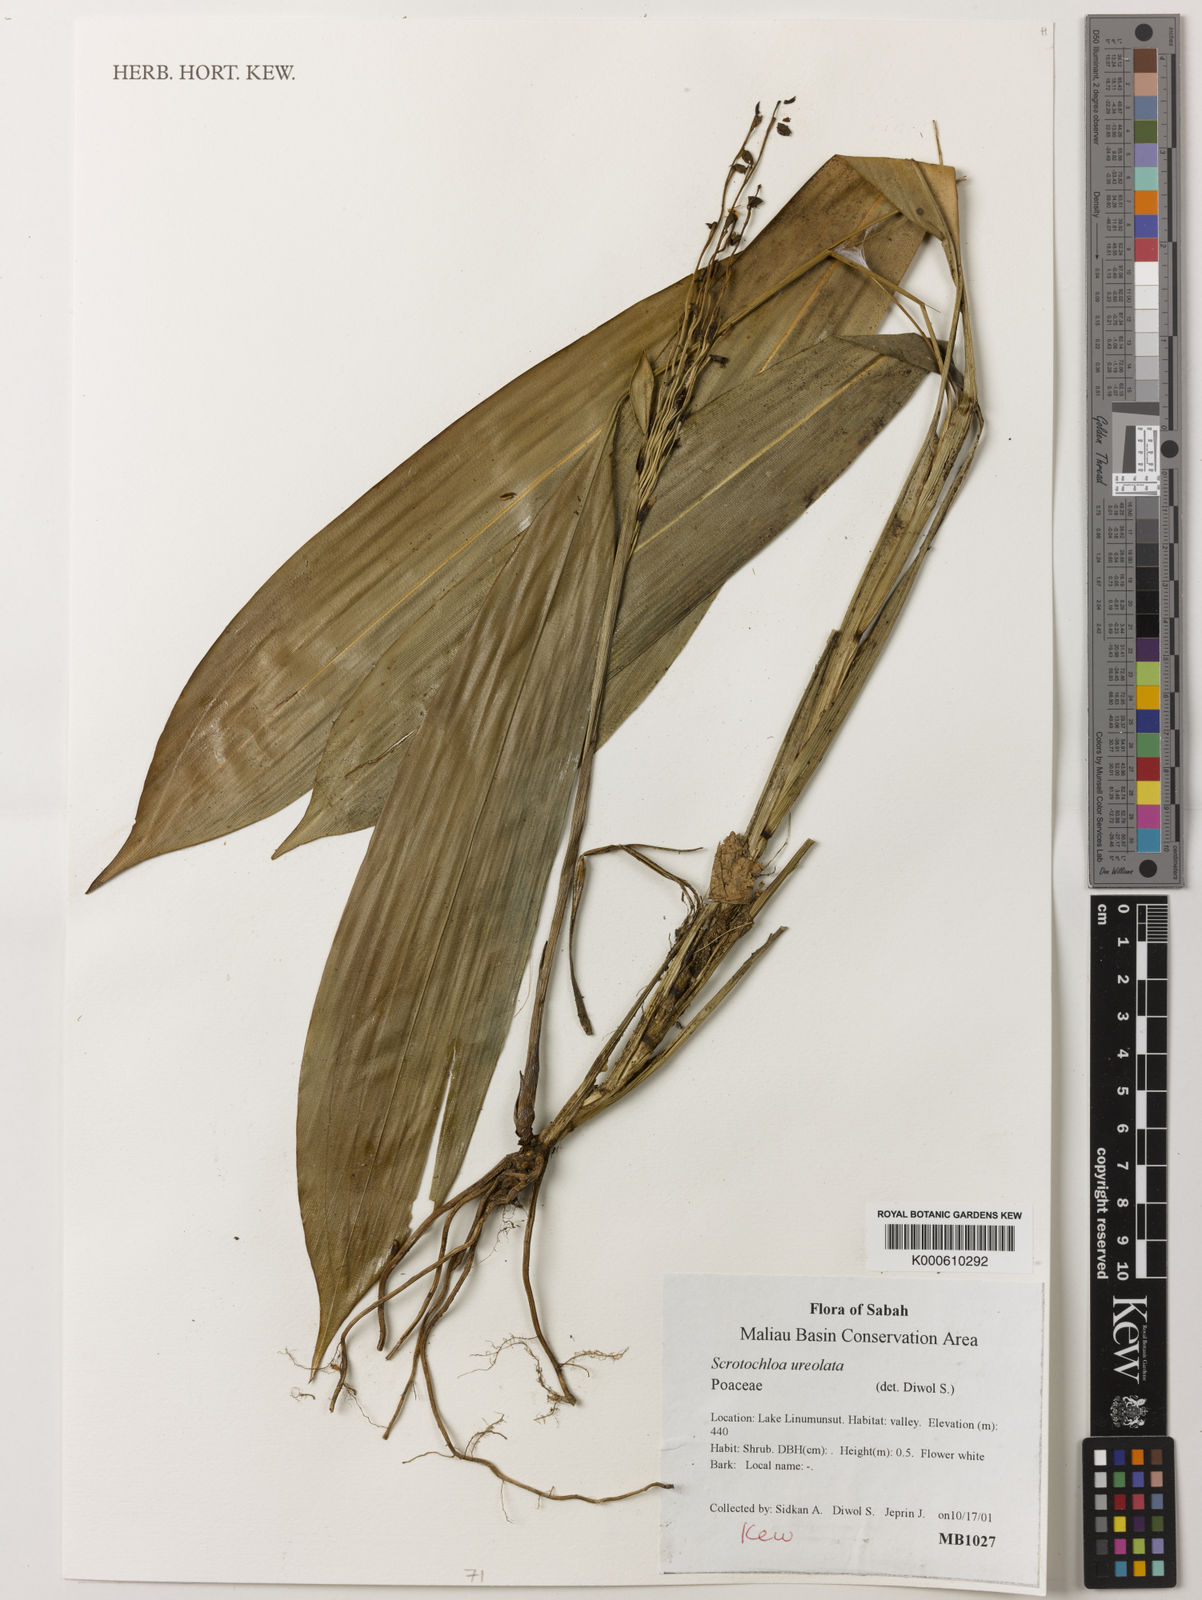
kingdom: Plantae
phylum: Tracheophyta
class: Liliopsida
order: Poales
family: Poaceae
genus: Scolochloa
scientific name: Scolochloa
